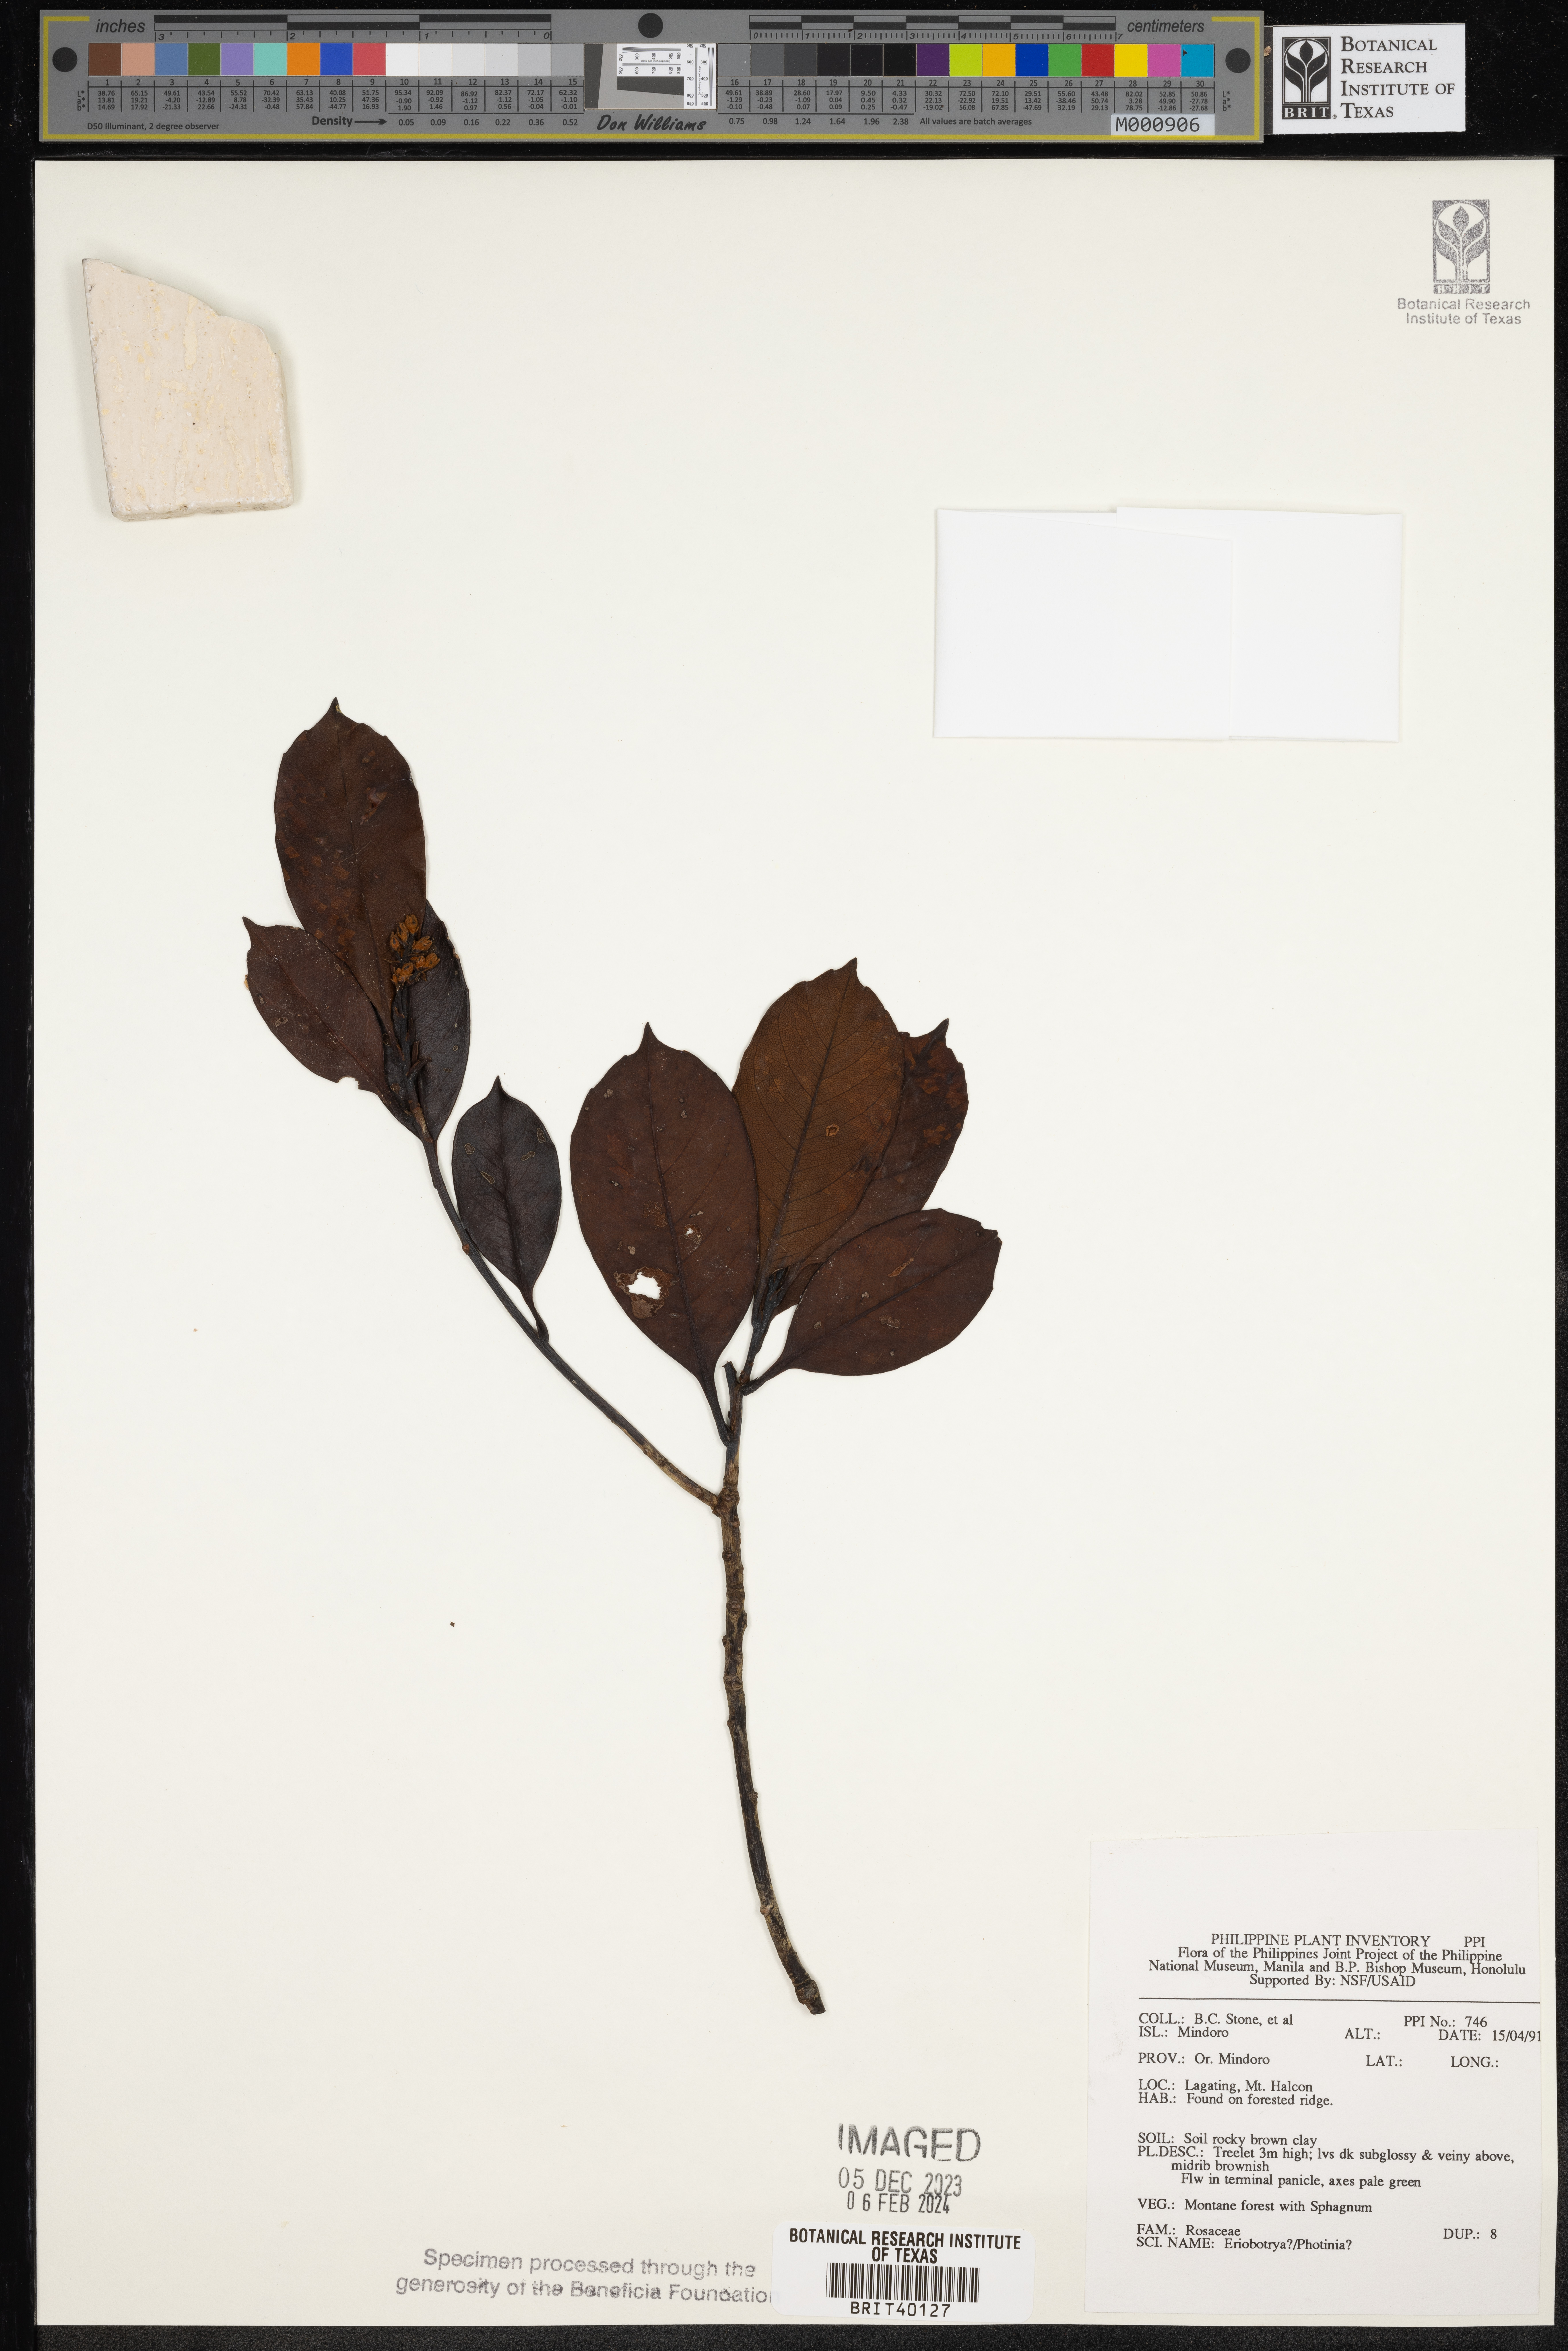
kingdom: Plantae
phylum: Tracheophyta
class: Magnoliopsida
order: Rosales
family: Rosaceae
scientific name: Rosaceae
